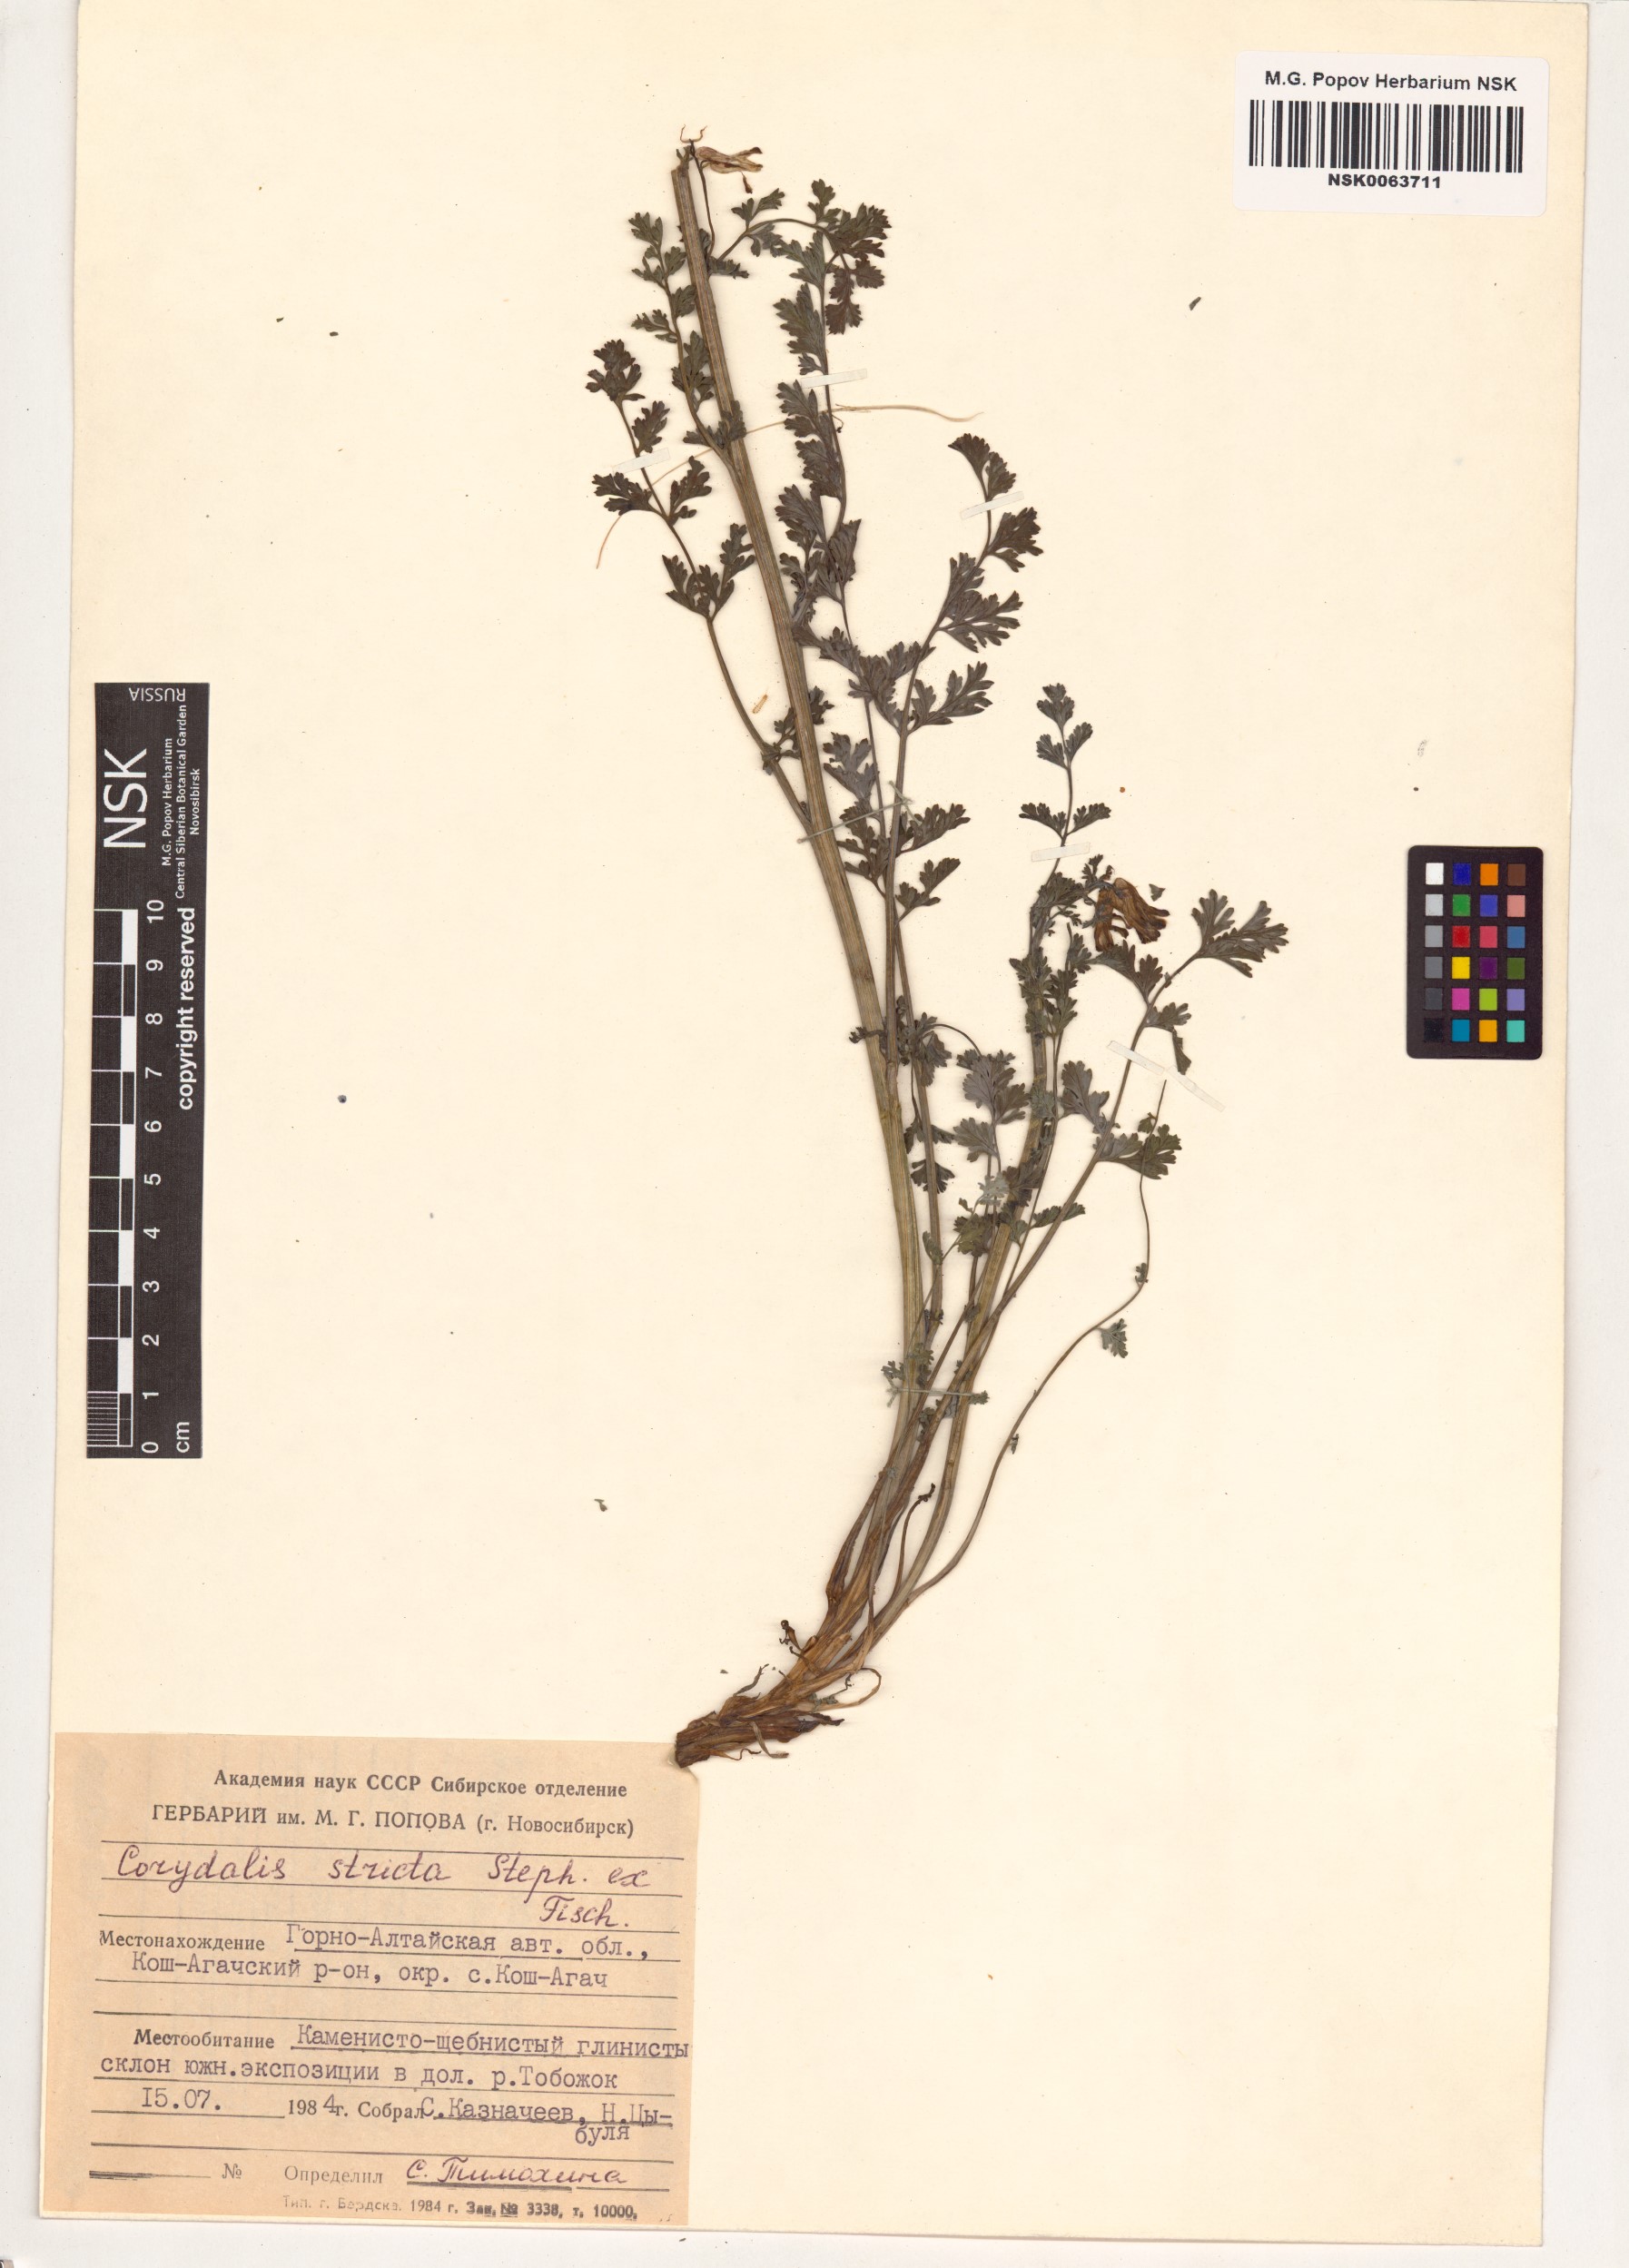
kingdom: Plantae
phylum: Tracheophyta
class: Magnoliopsida
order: Ranunculales
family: Papaveraceae
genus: Corydalis
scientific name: Corydalis stricta
